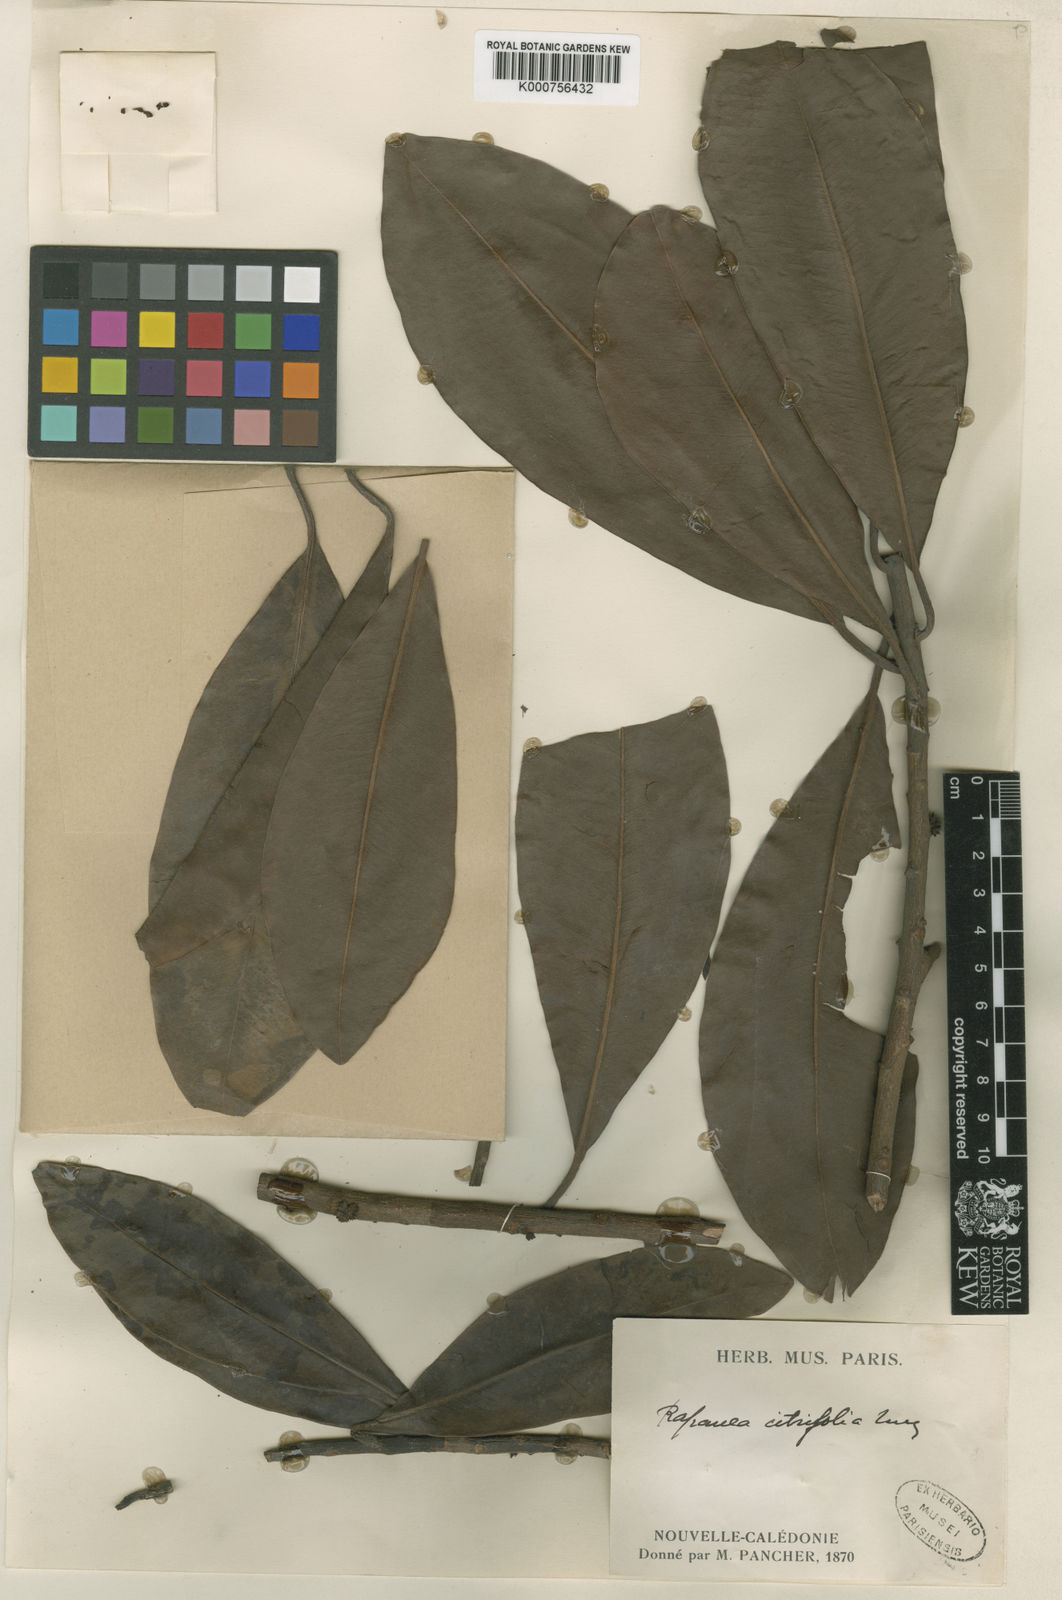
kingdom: Plantae
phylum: Tracheophyta
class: Magnoliopsida
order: Ericales
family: Primulaceae
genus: Myrsine
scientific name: Myrsine citrifolia
